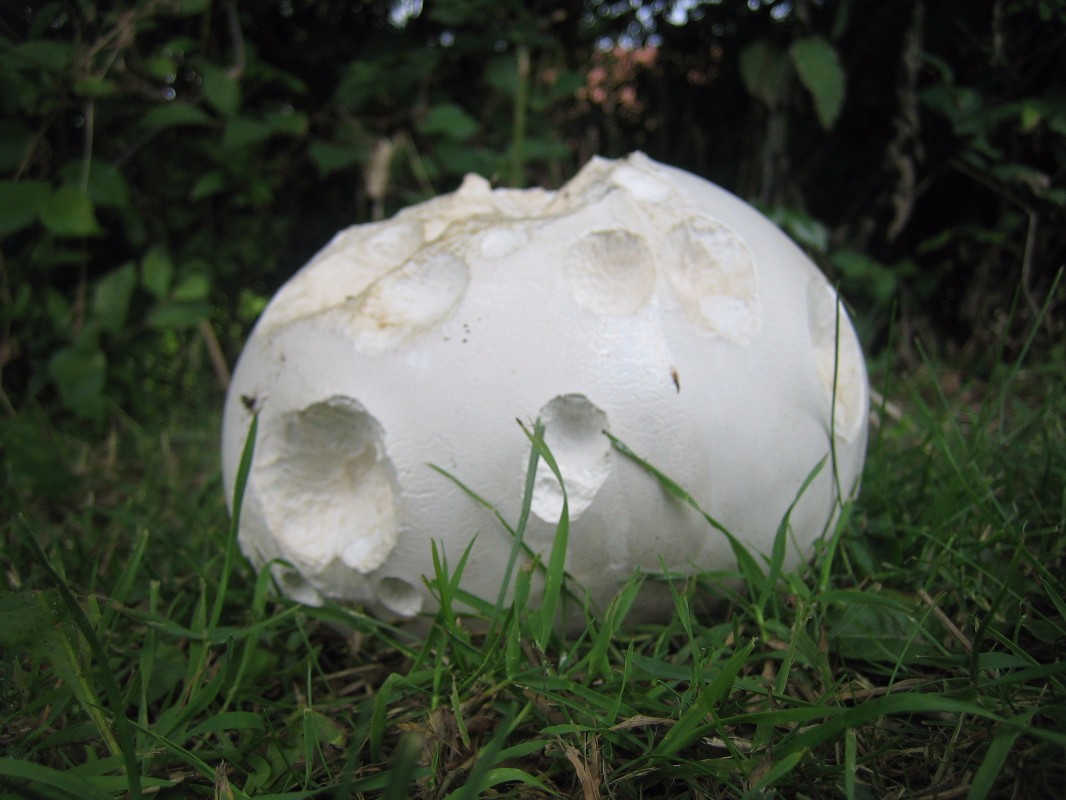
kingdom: Fungi
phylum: Basidiomycota
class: Agaricomycetes
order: Agaricales
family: Lycoperdaceae
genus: Calvatia
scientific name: Calvatia gigantea
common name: kæmpestøvbold
